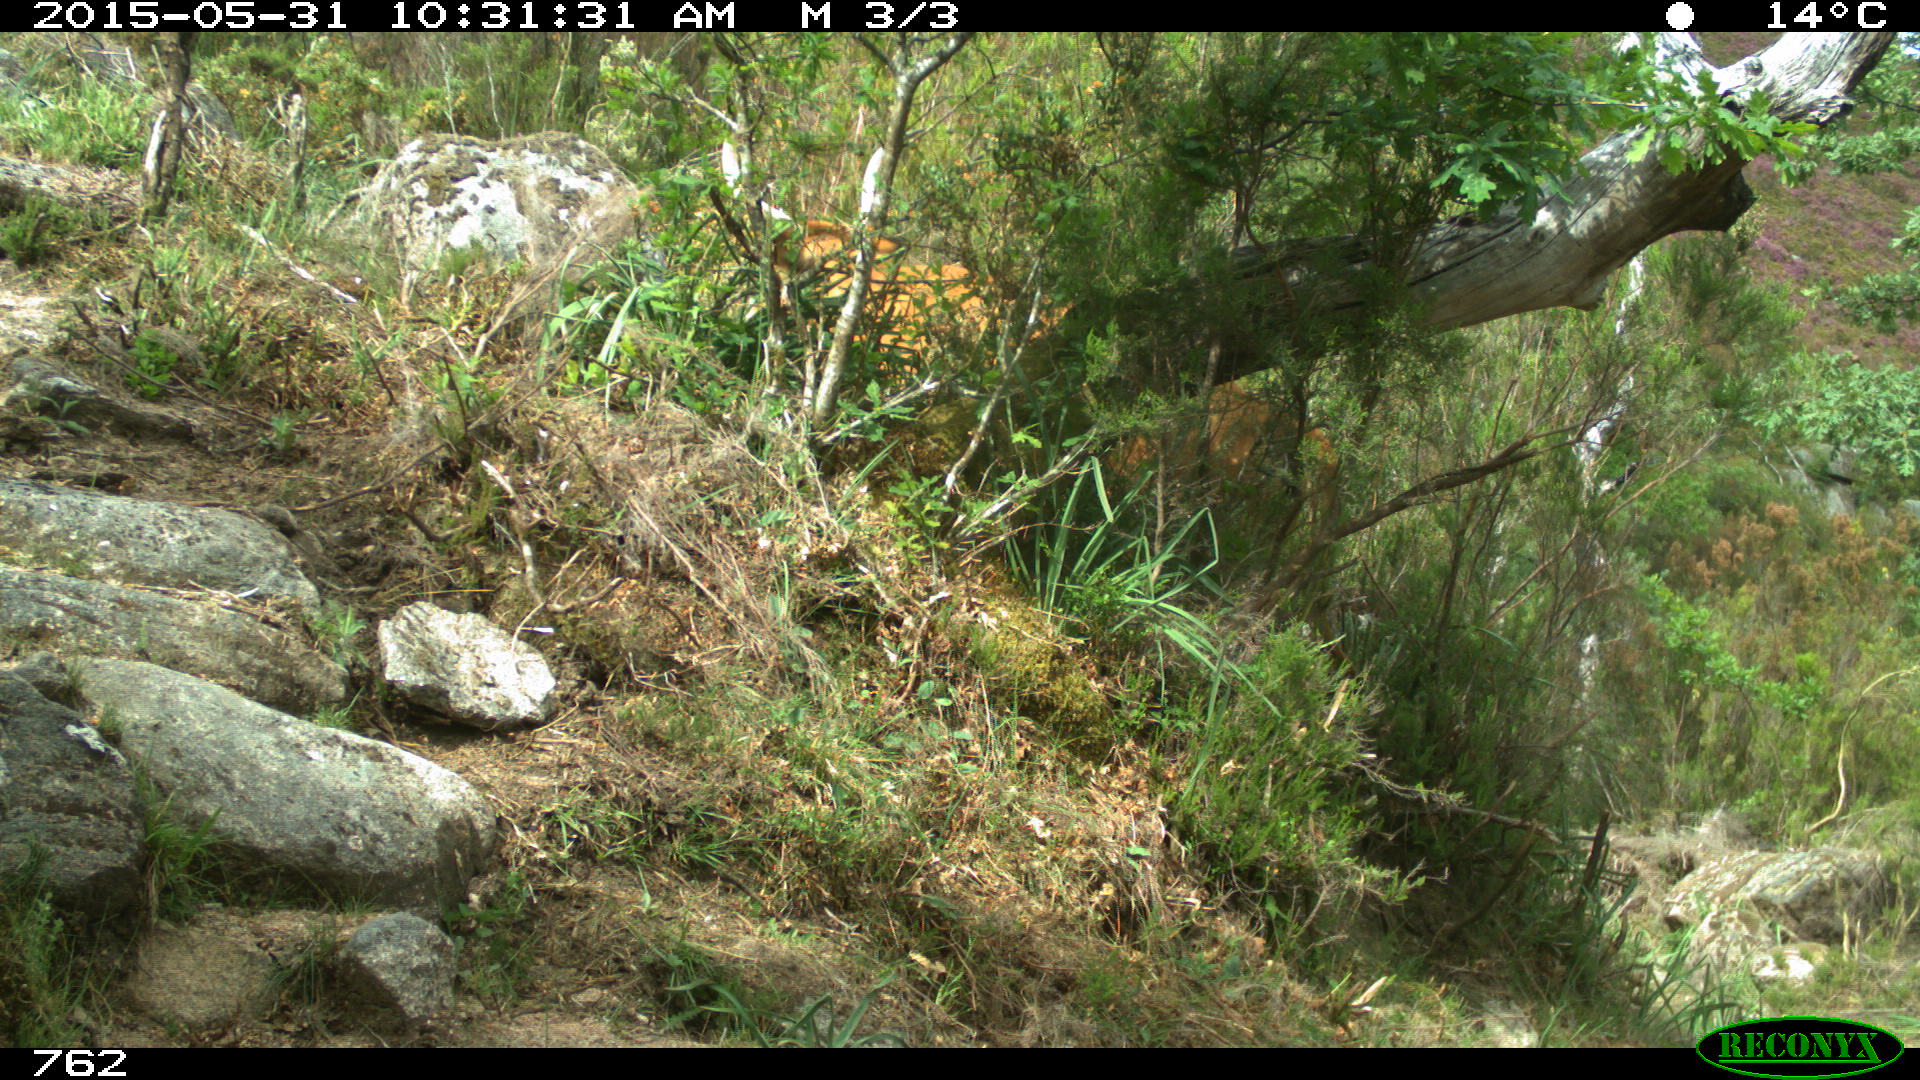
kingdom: Animalia
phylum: Chordata
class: Mammalia
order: Artiodactyla
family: Bovidae
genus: Bos
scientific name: Bos taurus
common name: Domesticated cattle
